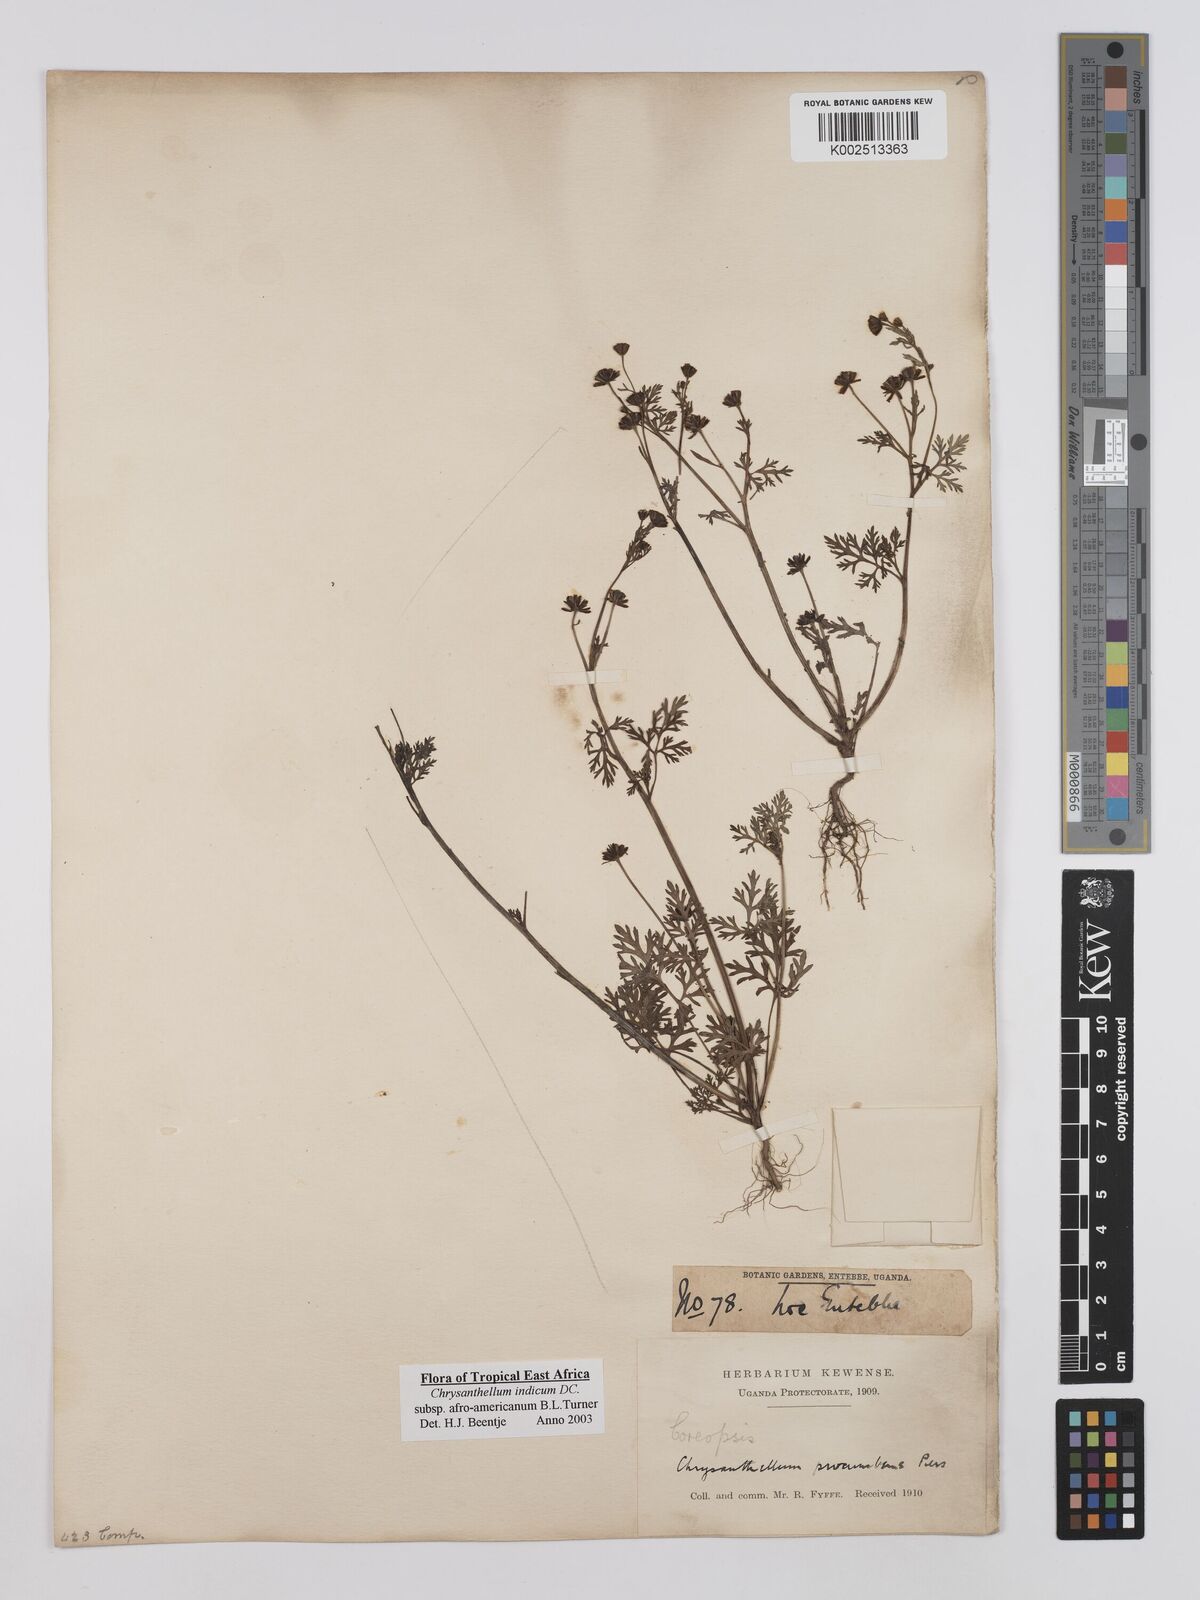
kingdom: Plantae
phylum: Tracheophyta
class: Magnoliopsida
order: Asterales
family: Asteraceae
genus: Chrysanthellum
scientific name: Chrysanthellum indicum
